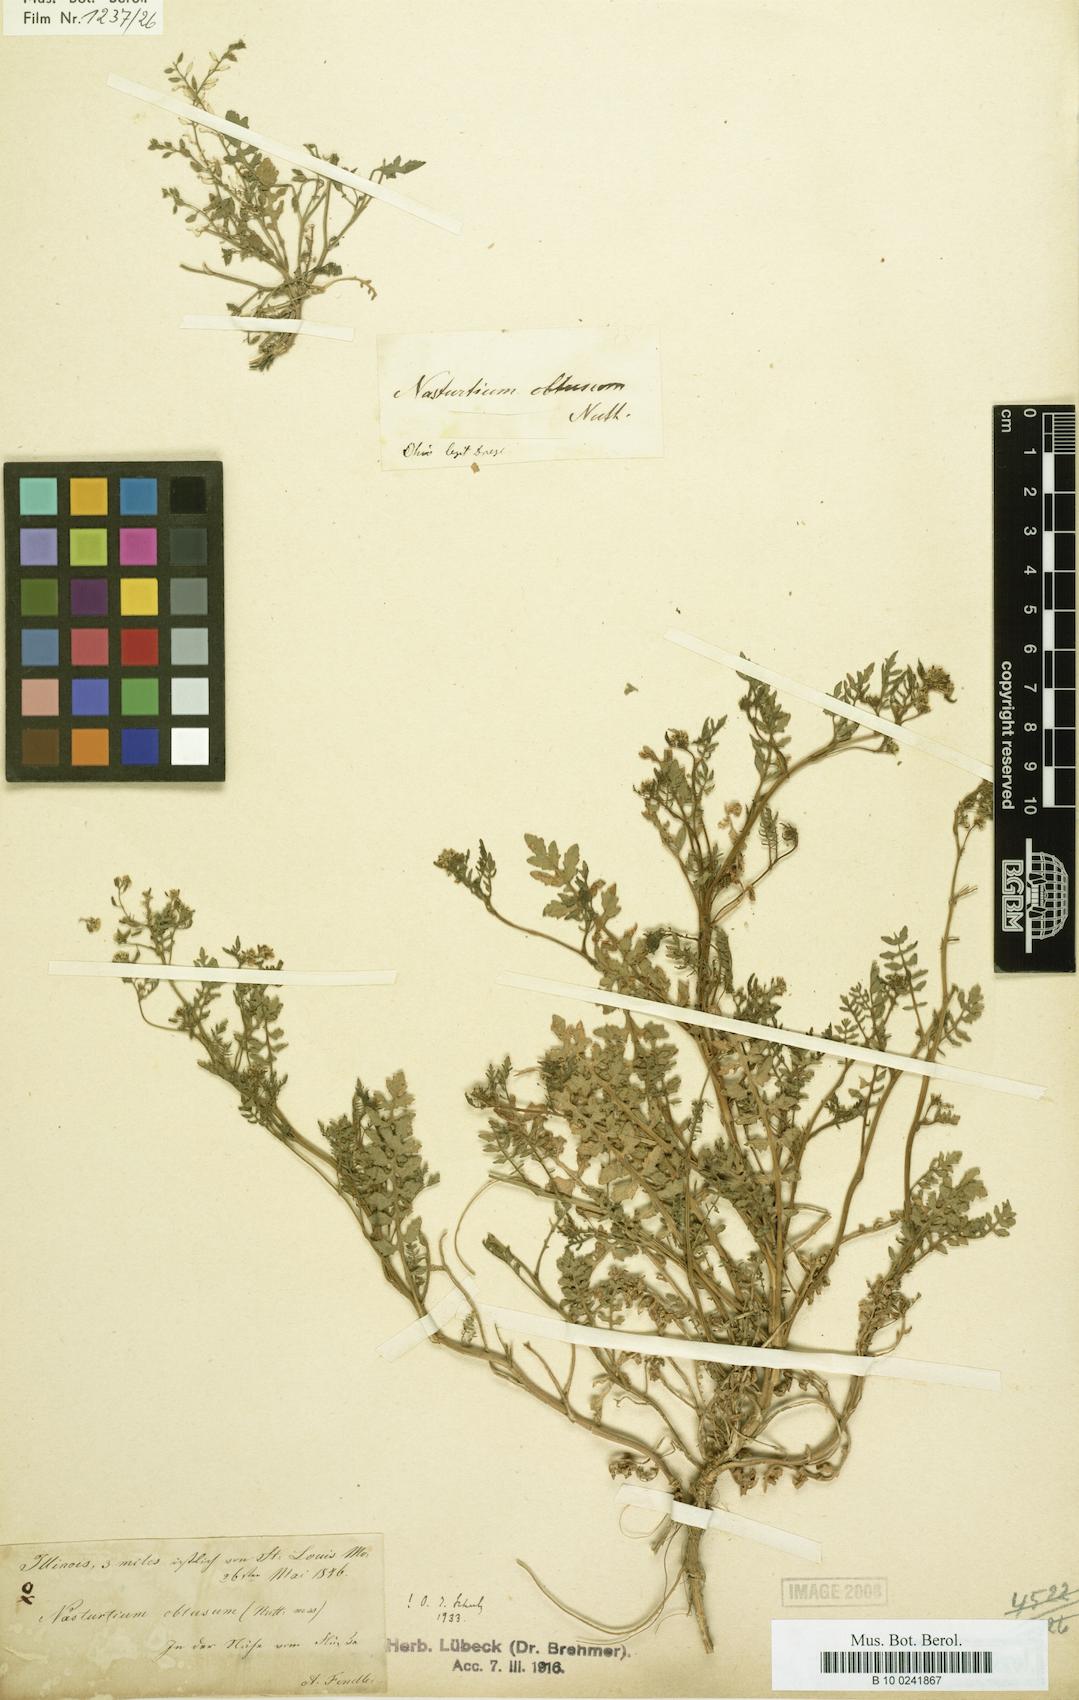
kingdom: Plantae
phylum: Tracheophyta
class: Magnoliopsida
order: Brassicales
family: Brassicaceae
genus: Rorippa
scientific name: Rorippa teres
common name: Southern marsh yellowcress
